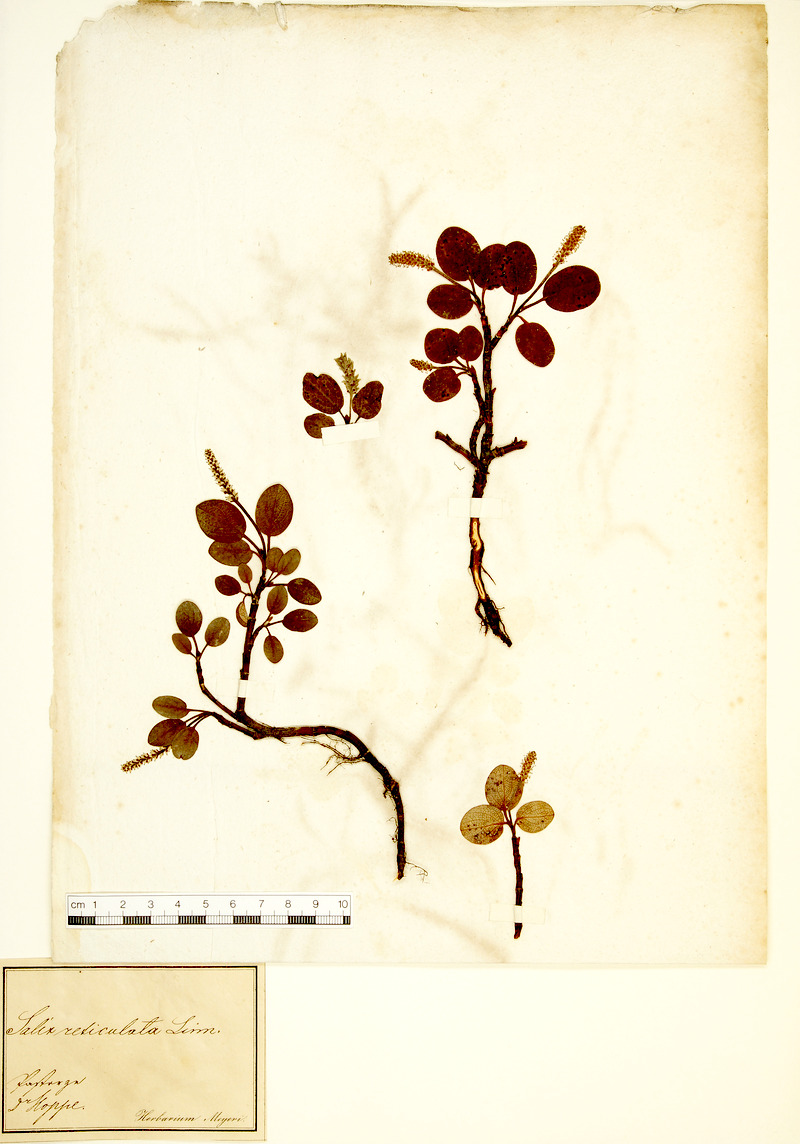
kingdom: Plantae
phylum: Tracheophyta
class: Magnoliopsida
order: Malpighiales
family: Salicaceae
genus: Salix
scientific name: Salix reticulata
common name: Net-leaved willow
